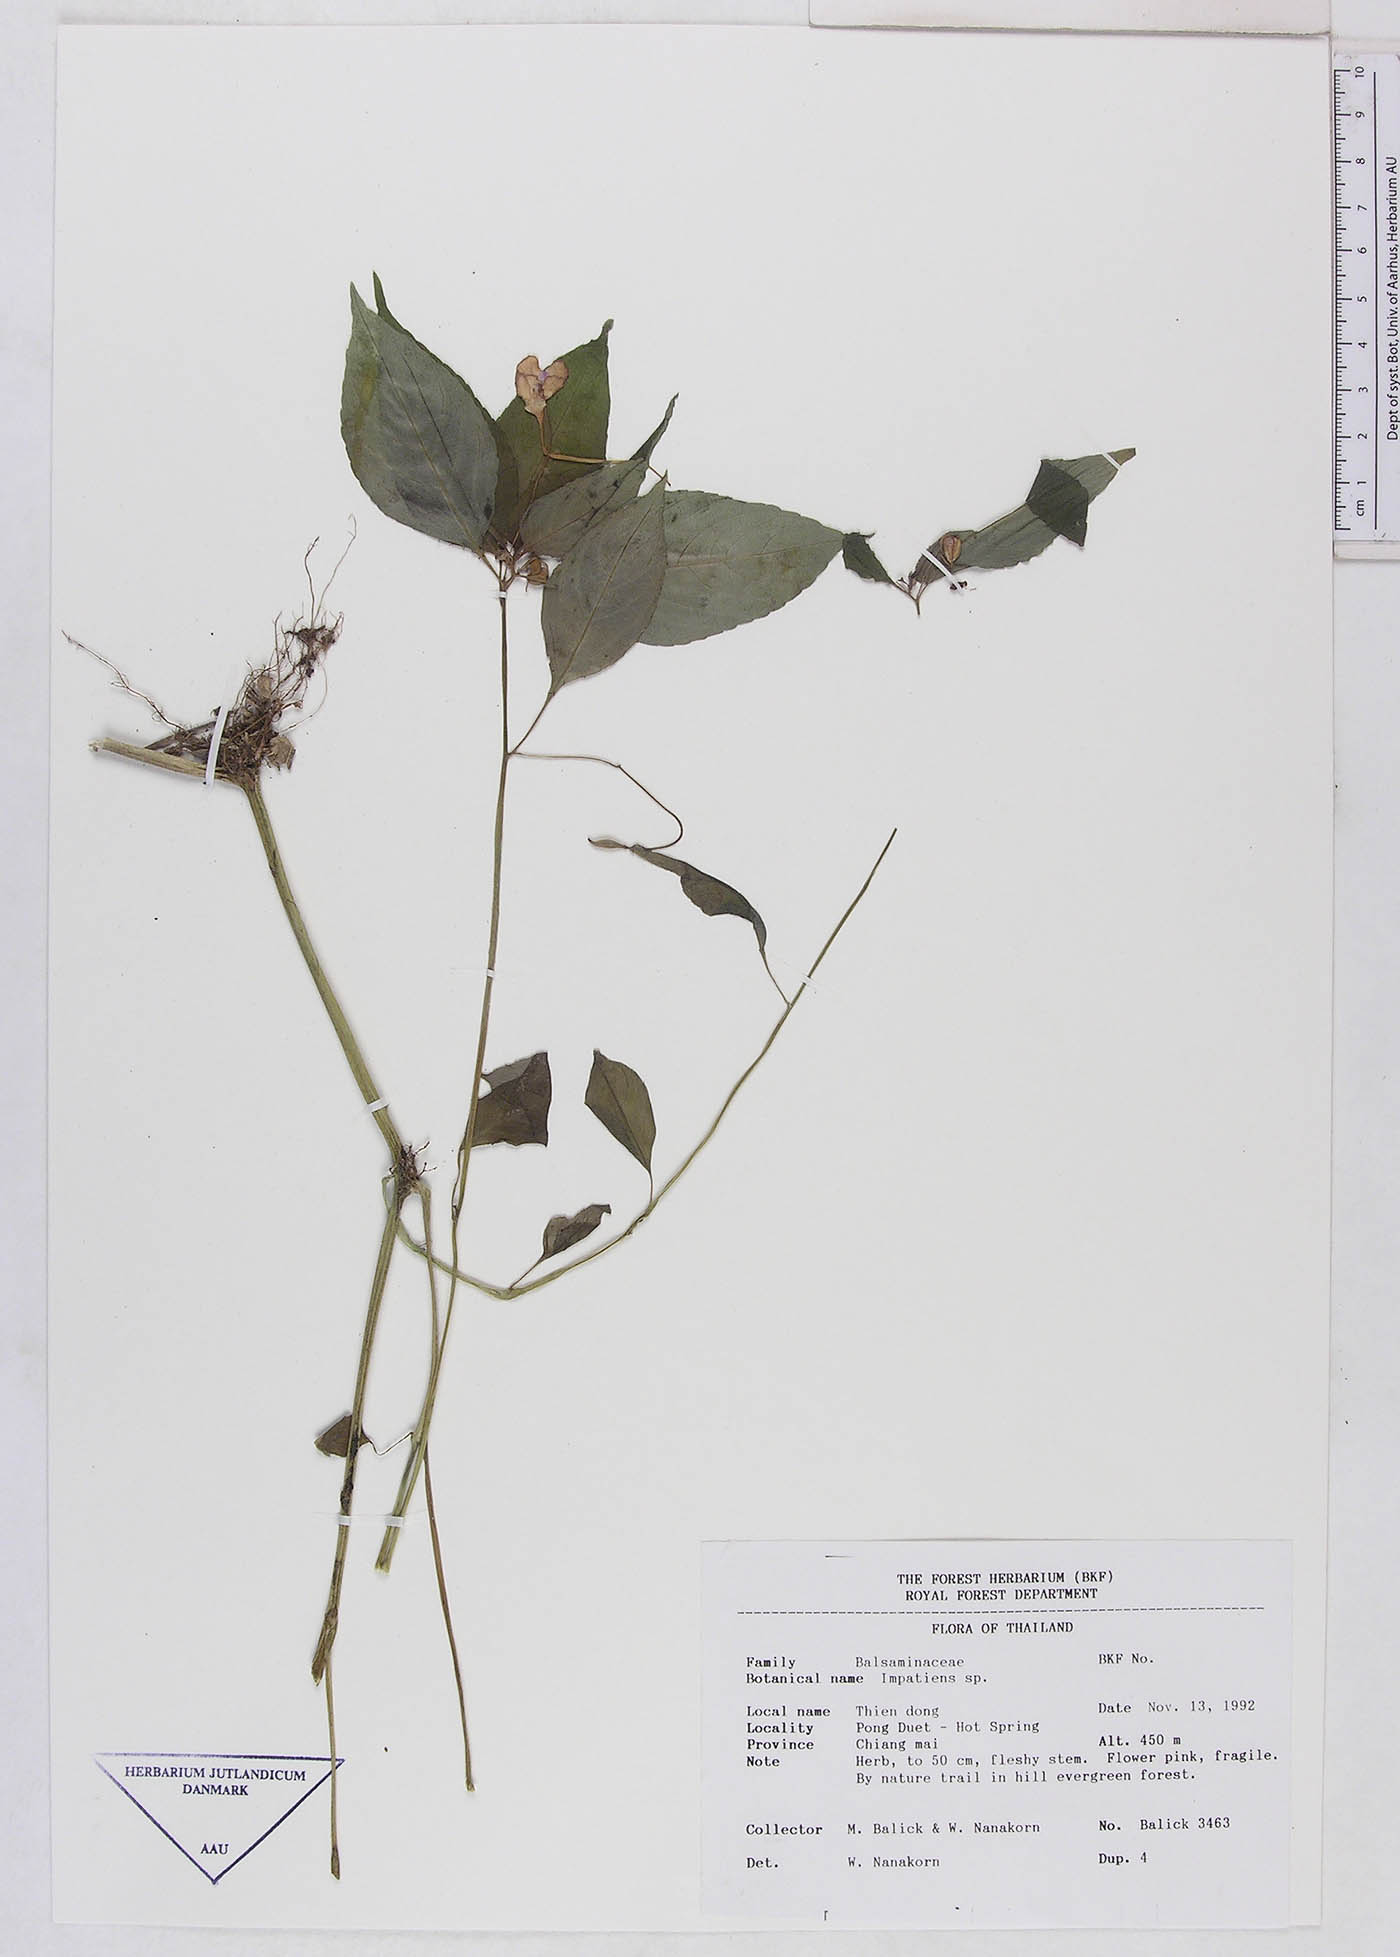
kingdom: Plantae
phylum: Tracheophyta
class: Magnoliopsida
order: Ericales
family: Balsaminaceae
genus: Impatiens
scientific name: Impatiens violiflora
